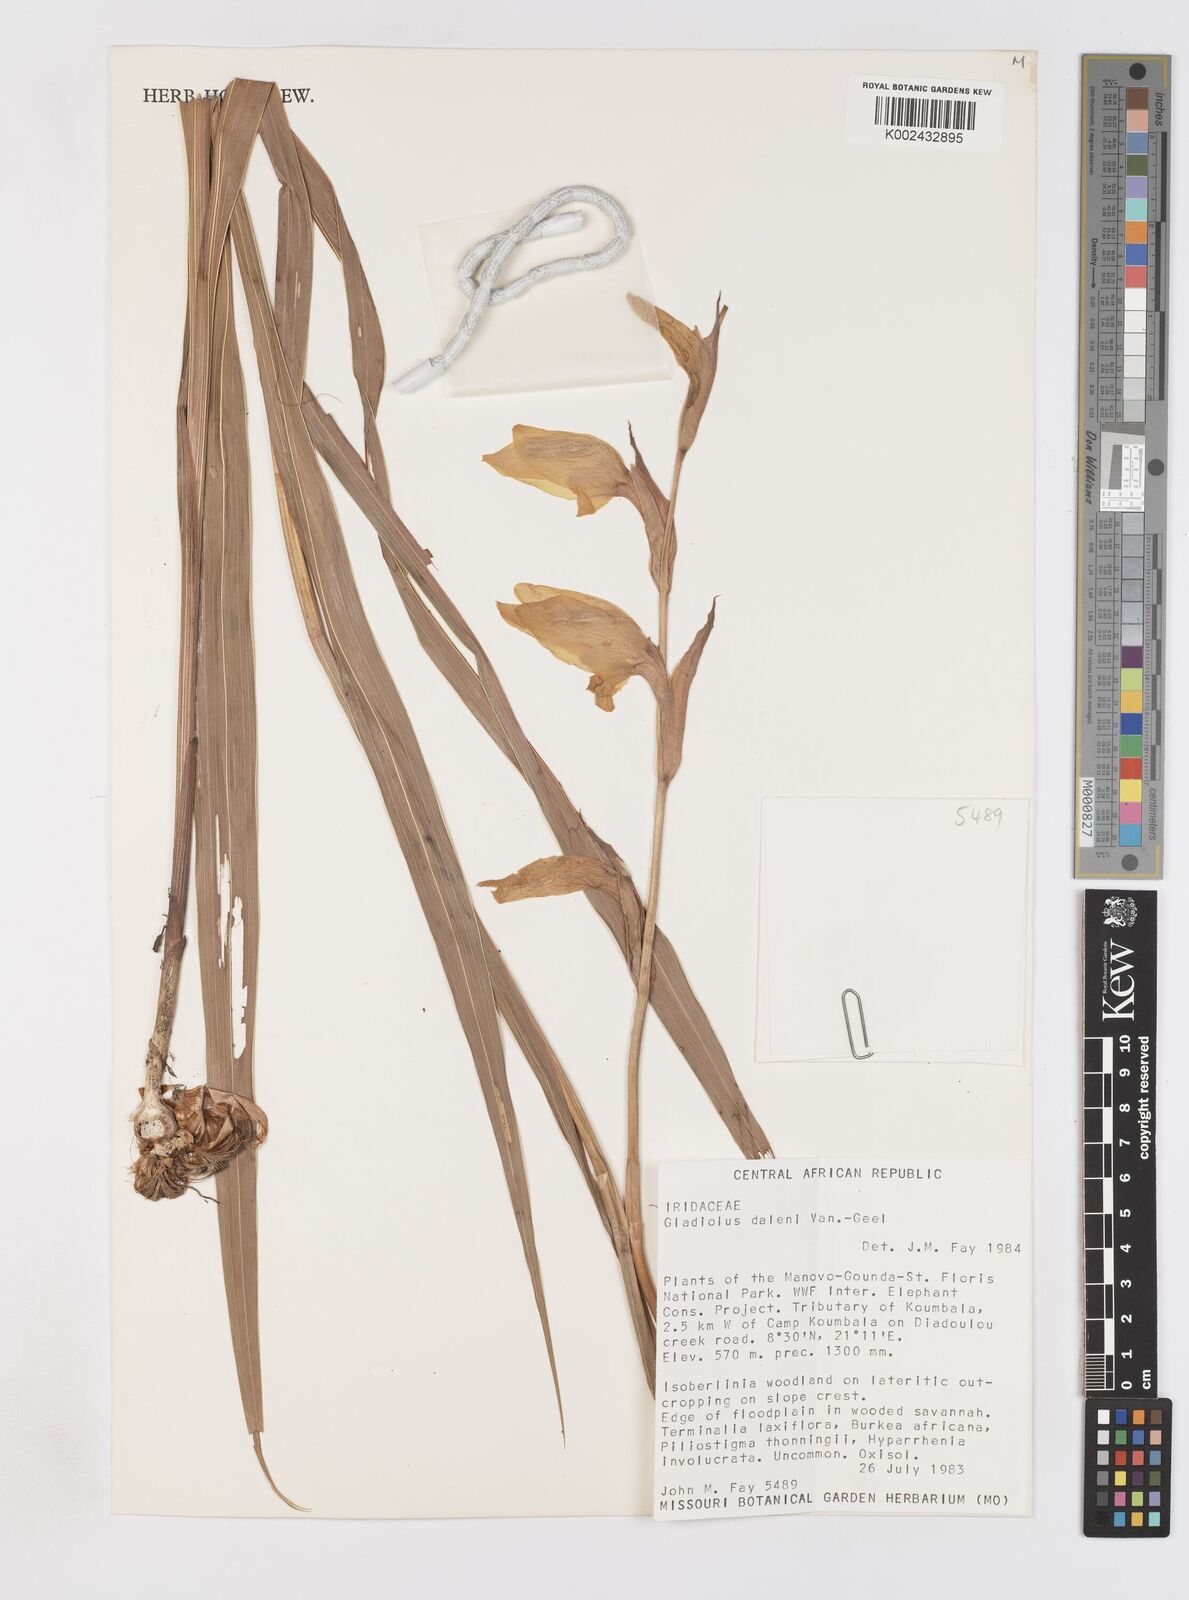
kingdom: Plantae
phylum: Tracheophyta
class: Liliopsida
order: Asparagales
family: Iridaceae
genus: Gladiolus
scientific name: Gladiolus dalenii
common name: Cornflag
